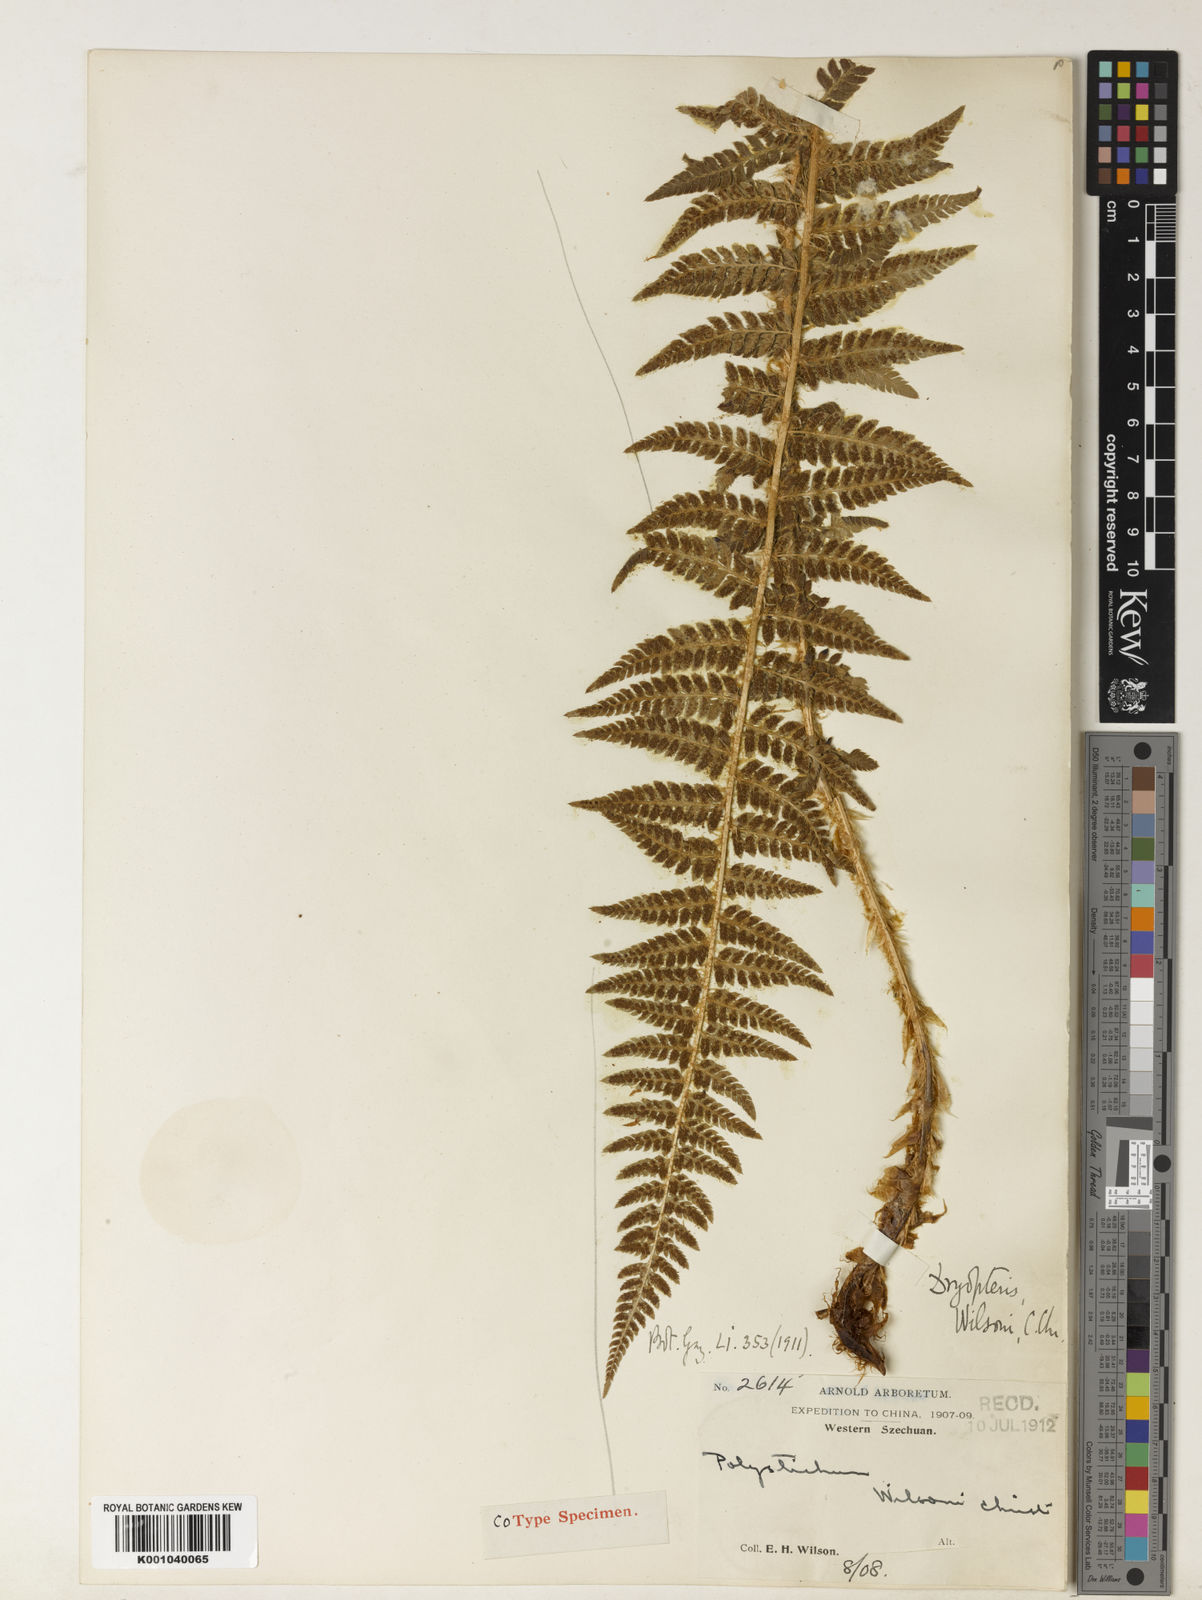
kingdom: Plantae
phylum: Tracheophyta
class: Polypodiopsida
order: Polypodiales
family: Dryopteridaceae
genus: Polystichum
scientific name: Polystichum sinense
